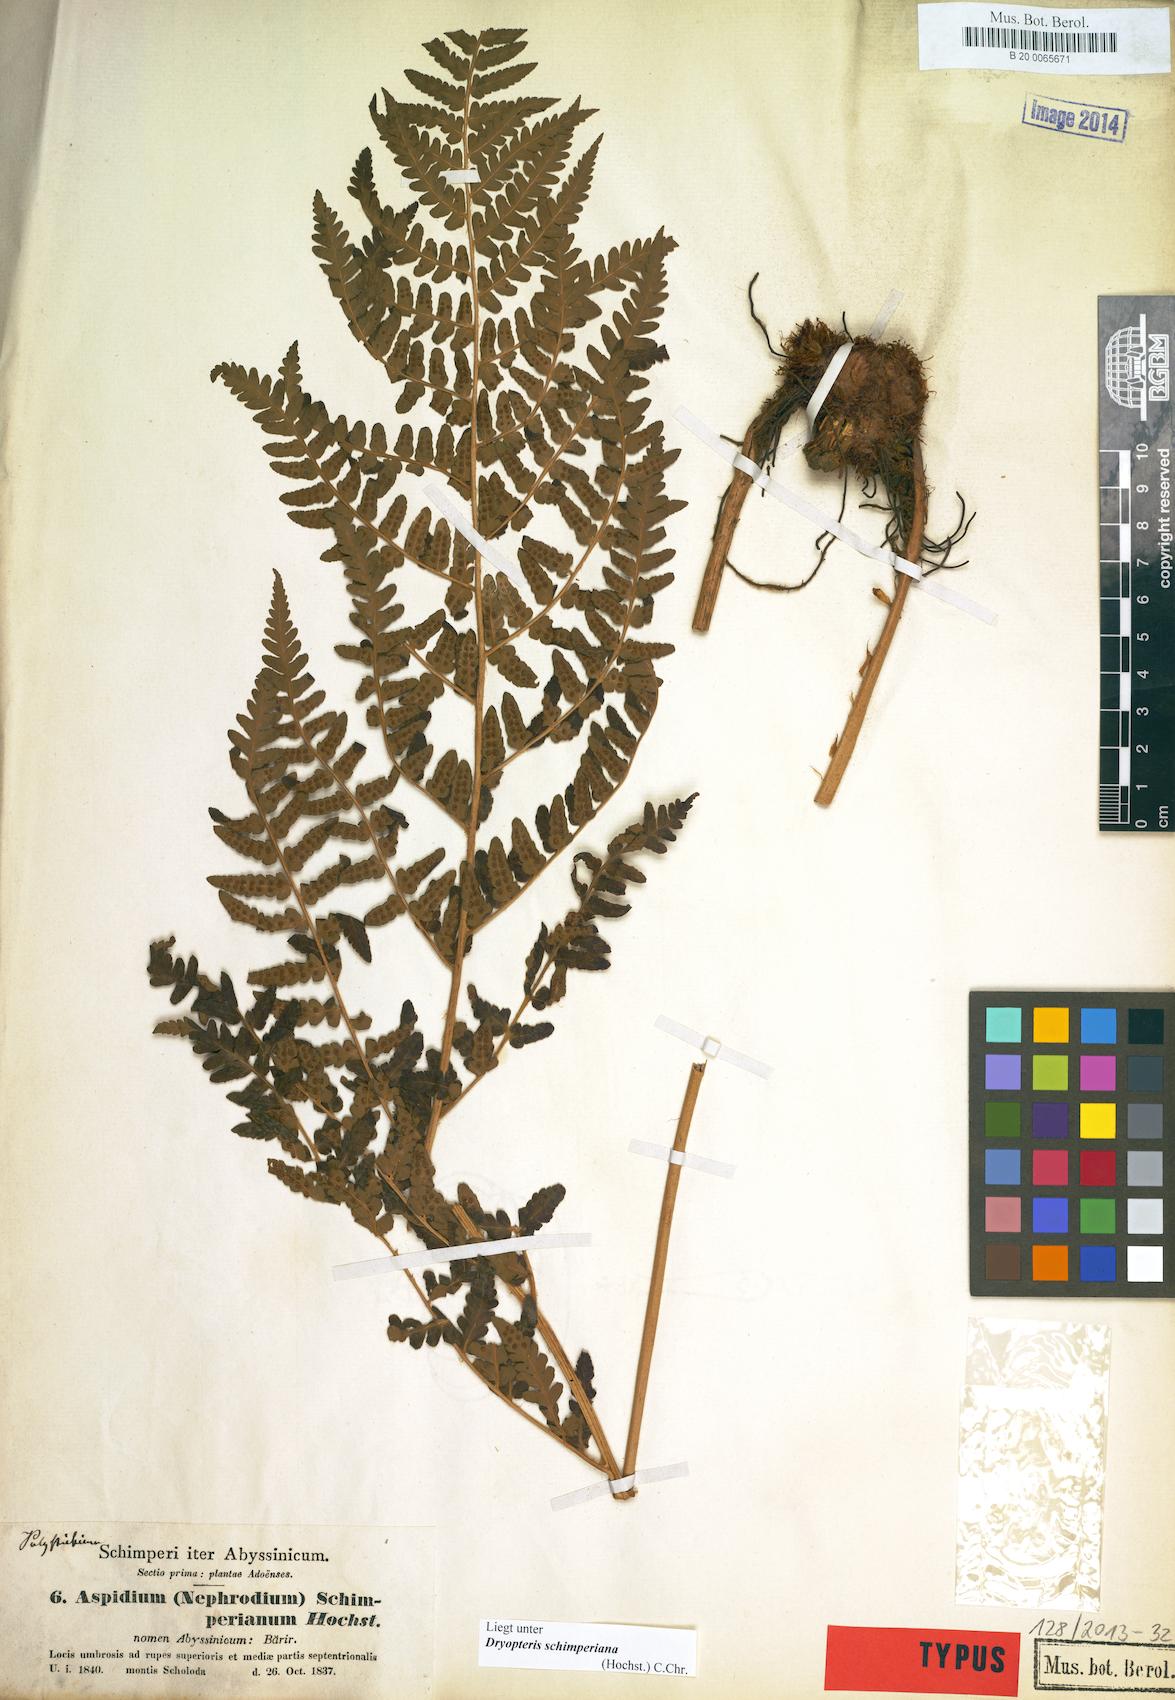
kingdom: Plantae
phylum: Tracheophyta
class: Polypodiopsida
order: Polypodiales
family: Dryopteridaceae
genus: Dryopteris
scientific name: Dryopteris schimperiana
